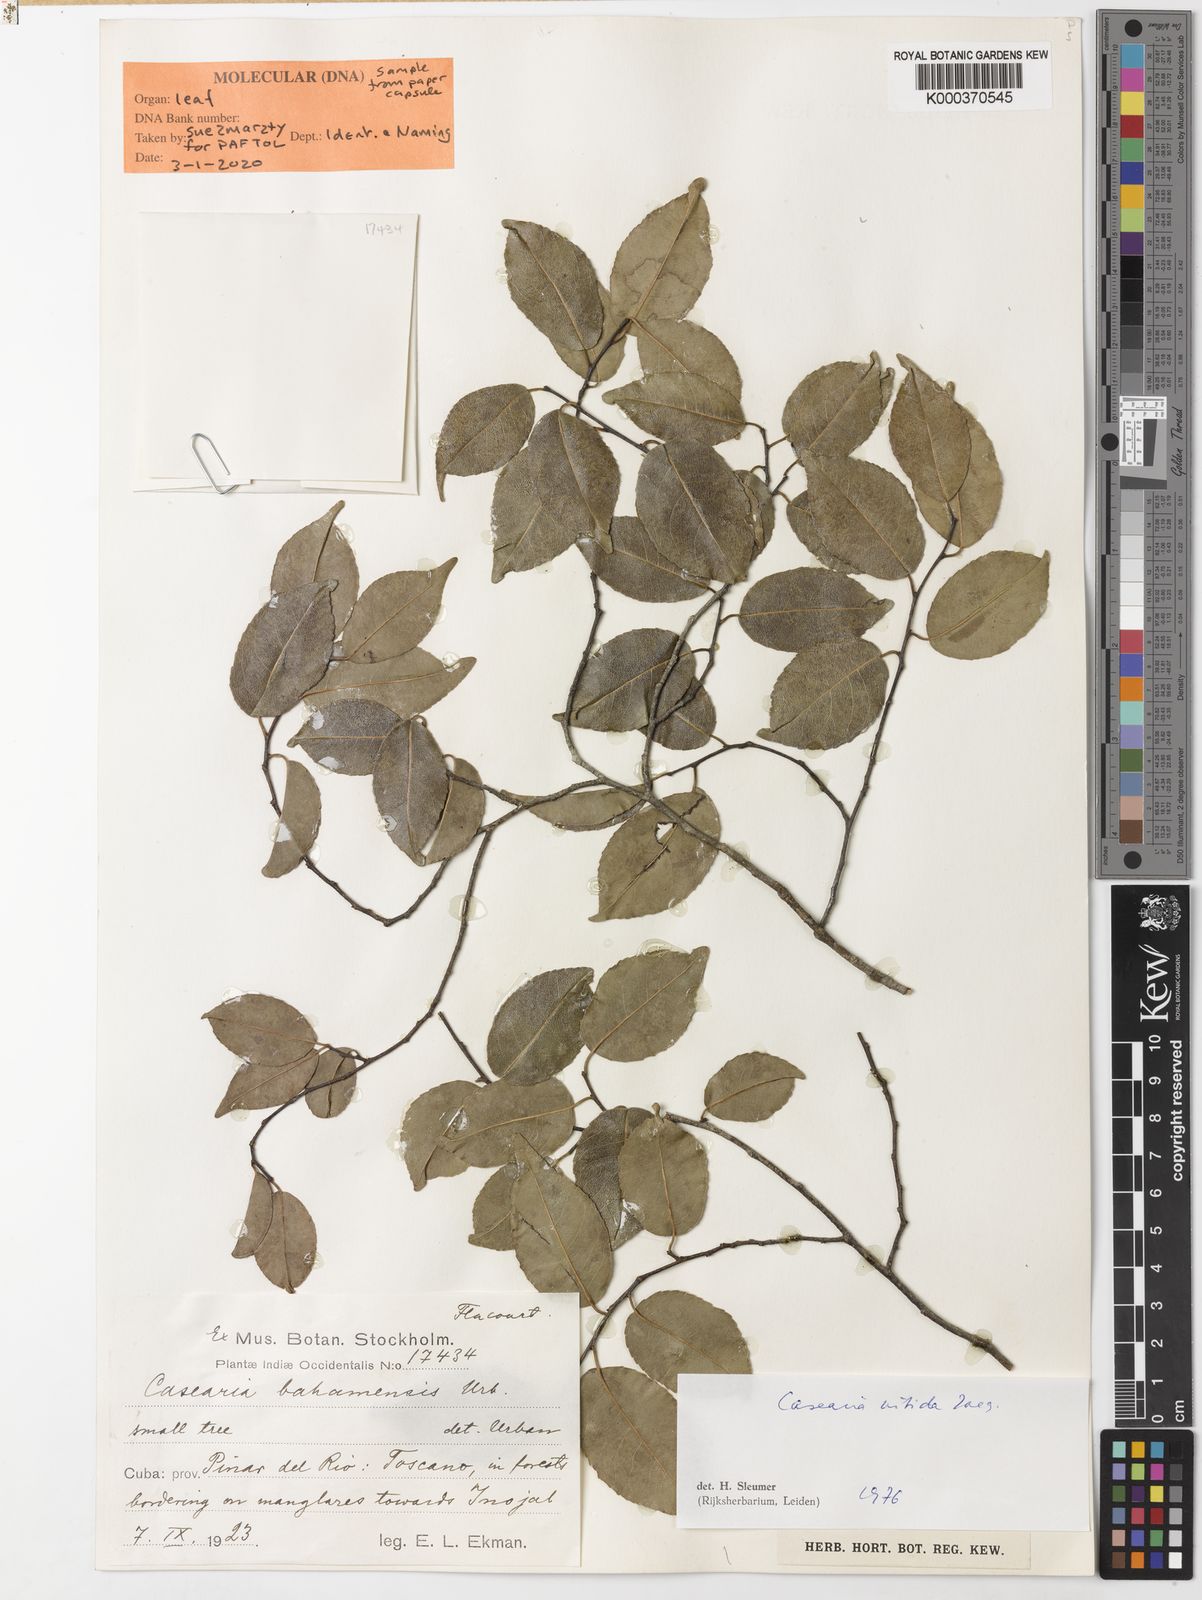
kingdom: Plantae
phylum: Tracheophyta
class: Magnoliopsida
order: Malpighiales
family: Salicaceae
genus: Casearia
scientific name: Casearia nitida
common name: Smooth honeytree
